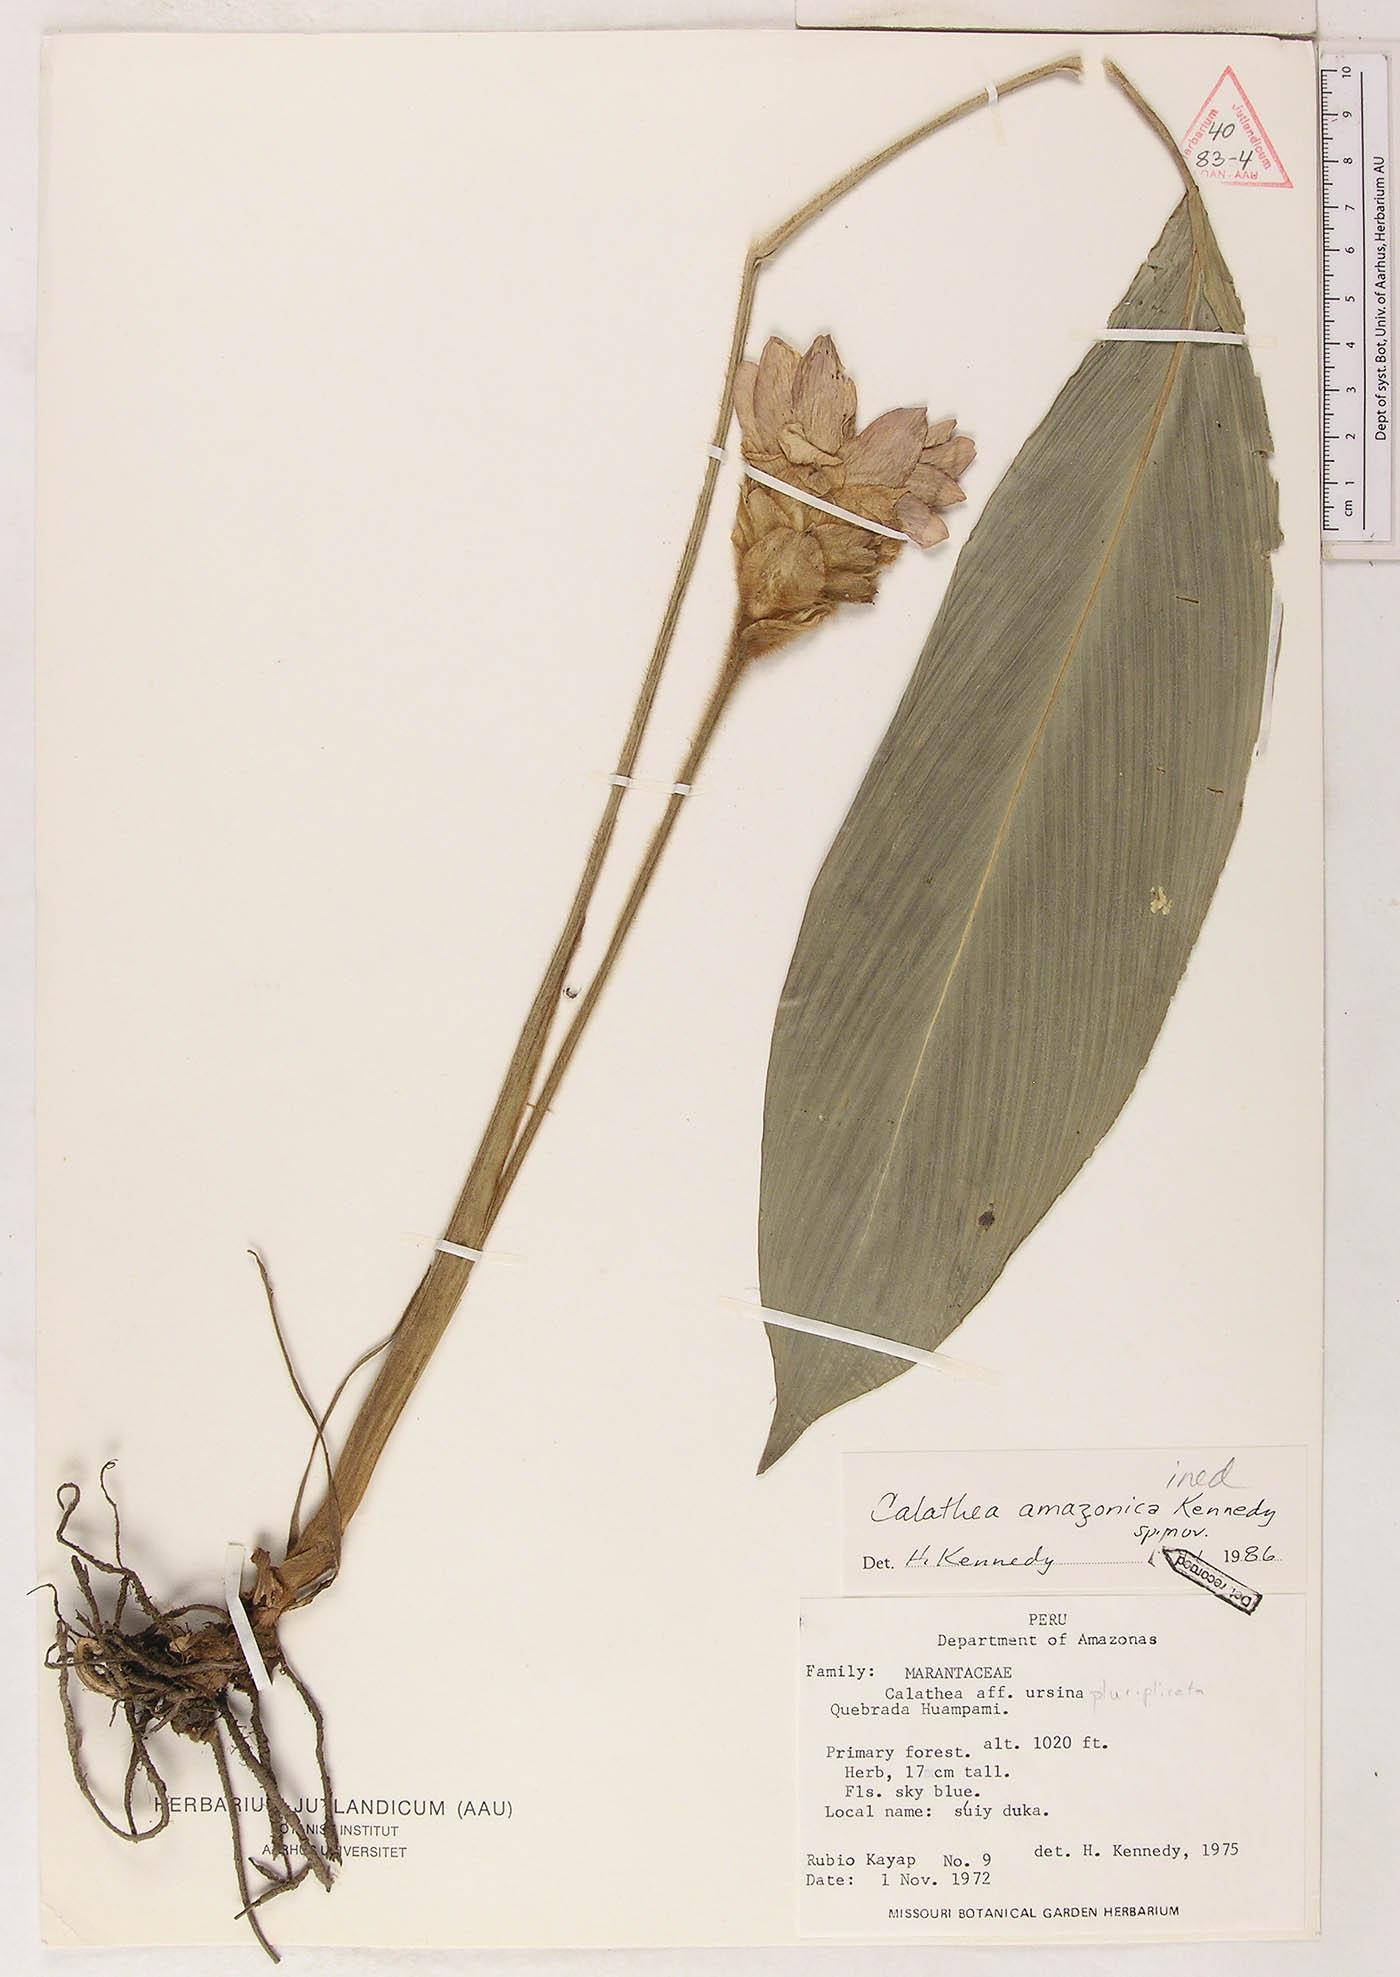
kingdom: Plantae
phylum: Tracheophyta
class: Liliopsida
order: Zingiberales
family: Marantaceae
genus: Goeppertia
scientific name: Goeppertia amazonica
